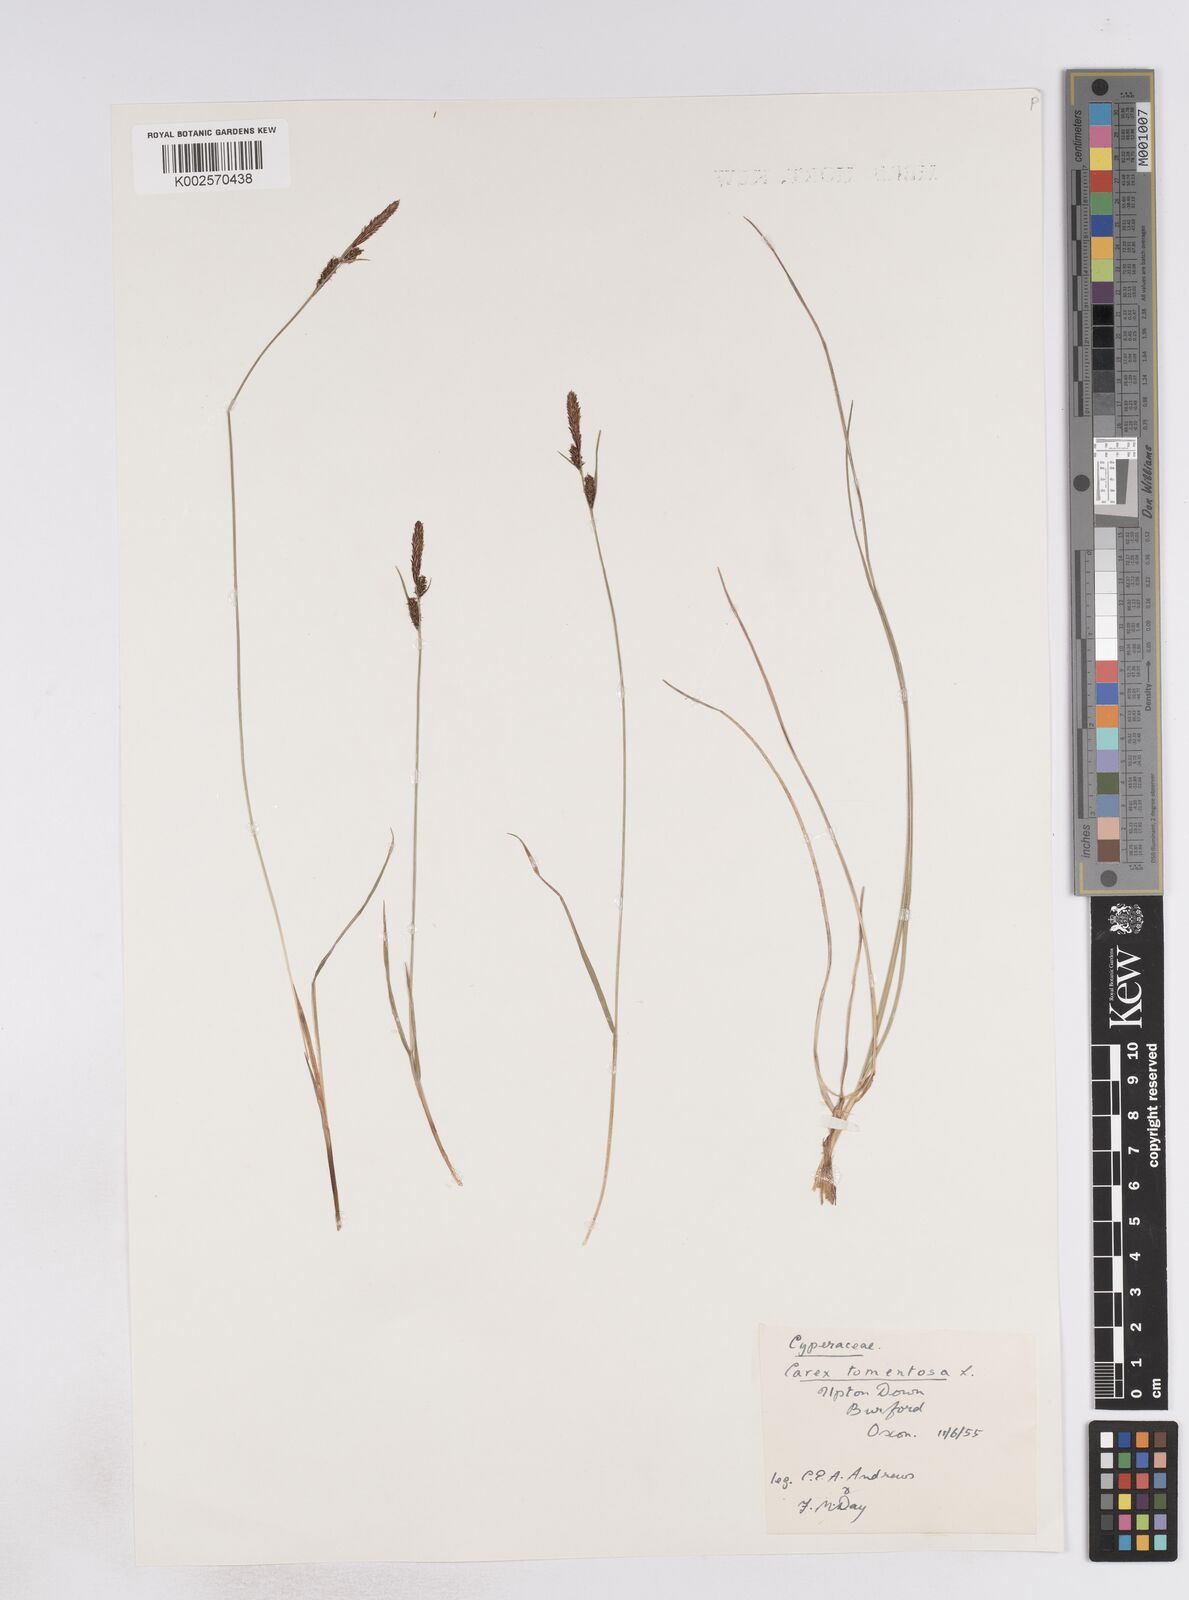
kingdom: Plantae
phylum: Tracheophyta
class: Liliopsida
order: Poales
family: Cyperaceae
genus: Carex
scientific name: Carex montana
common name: Soft-leaved sedge
